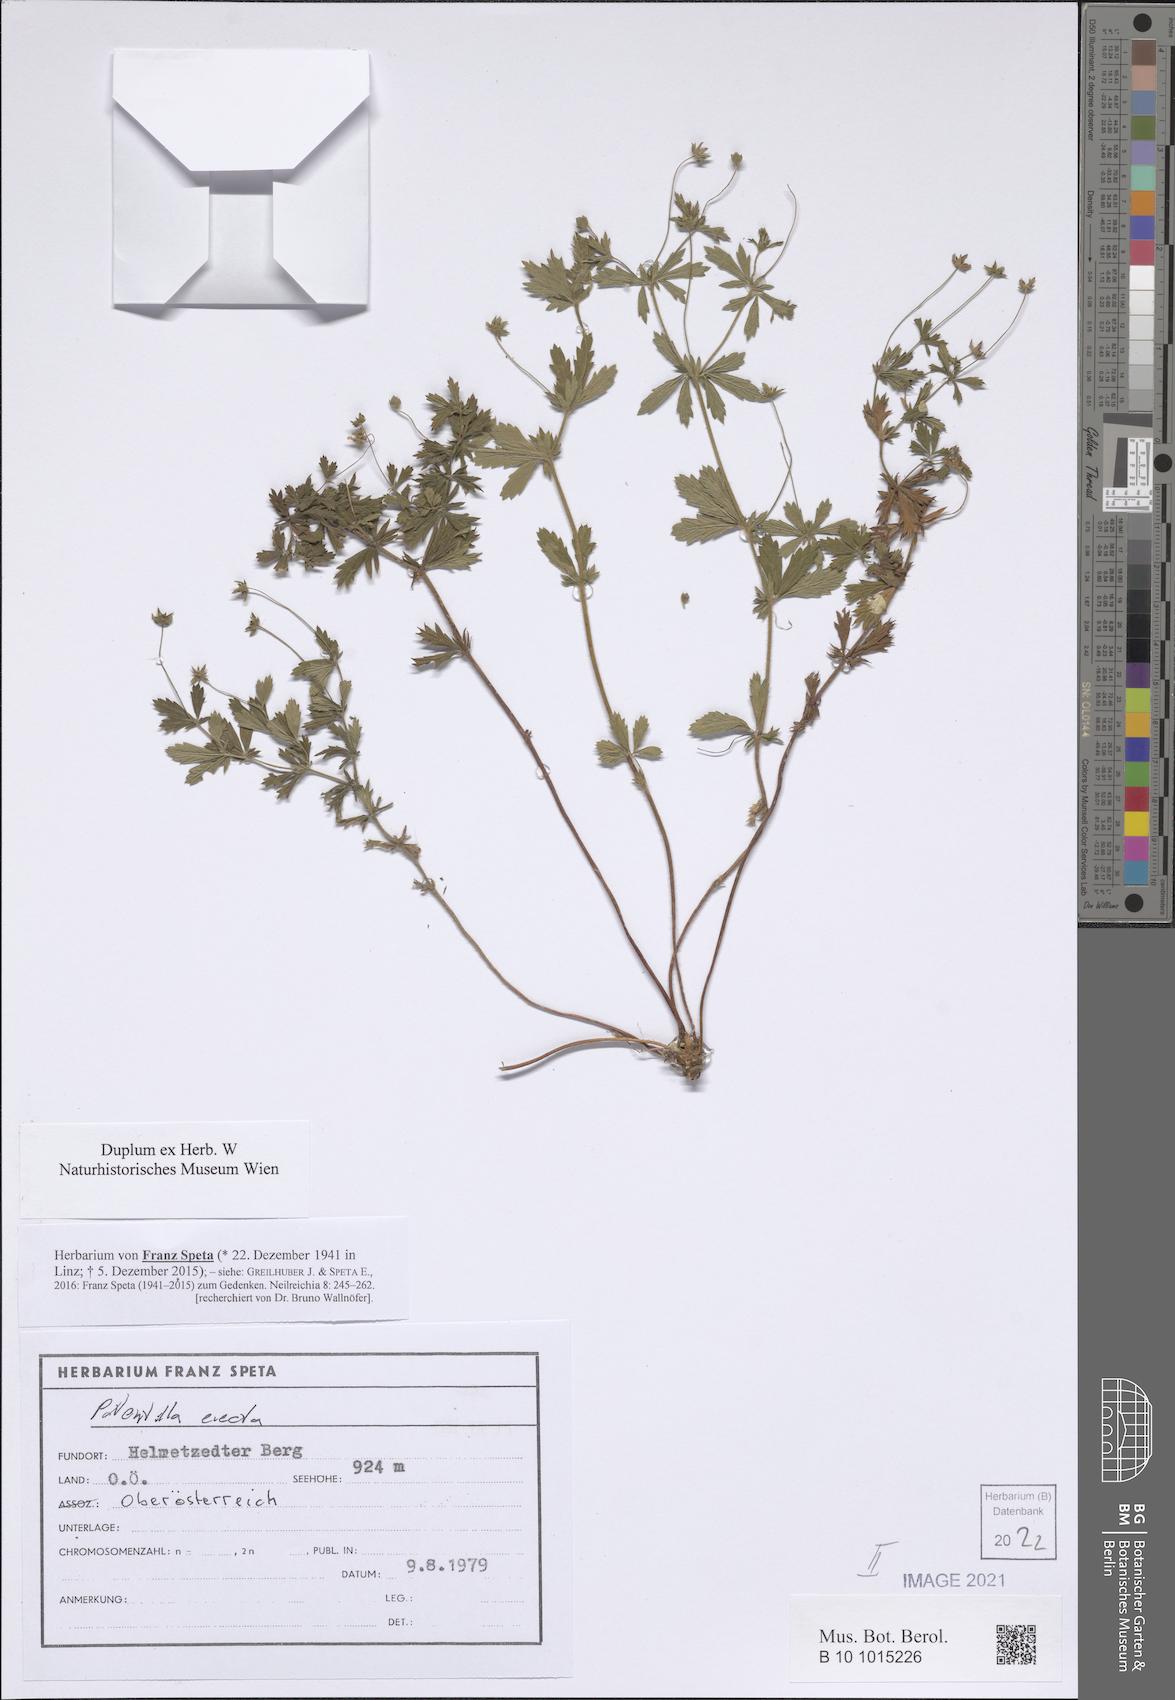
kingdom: Plantae
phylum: Tracheophyta
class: Magnoliopsida
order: Rosales
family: Rosaceae
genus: Potentilla
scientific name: Potentilla erecta
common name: Tormentil
